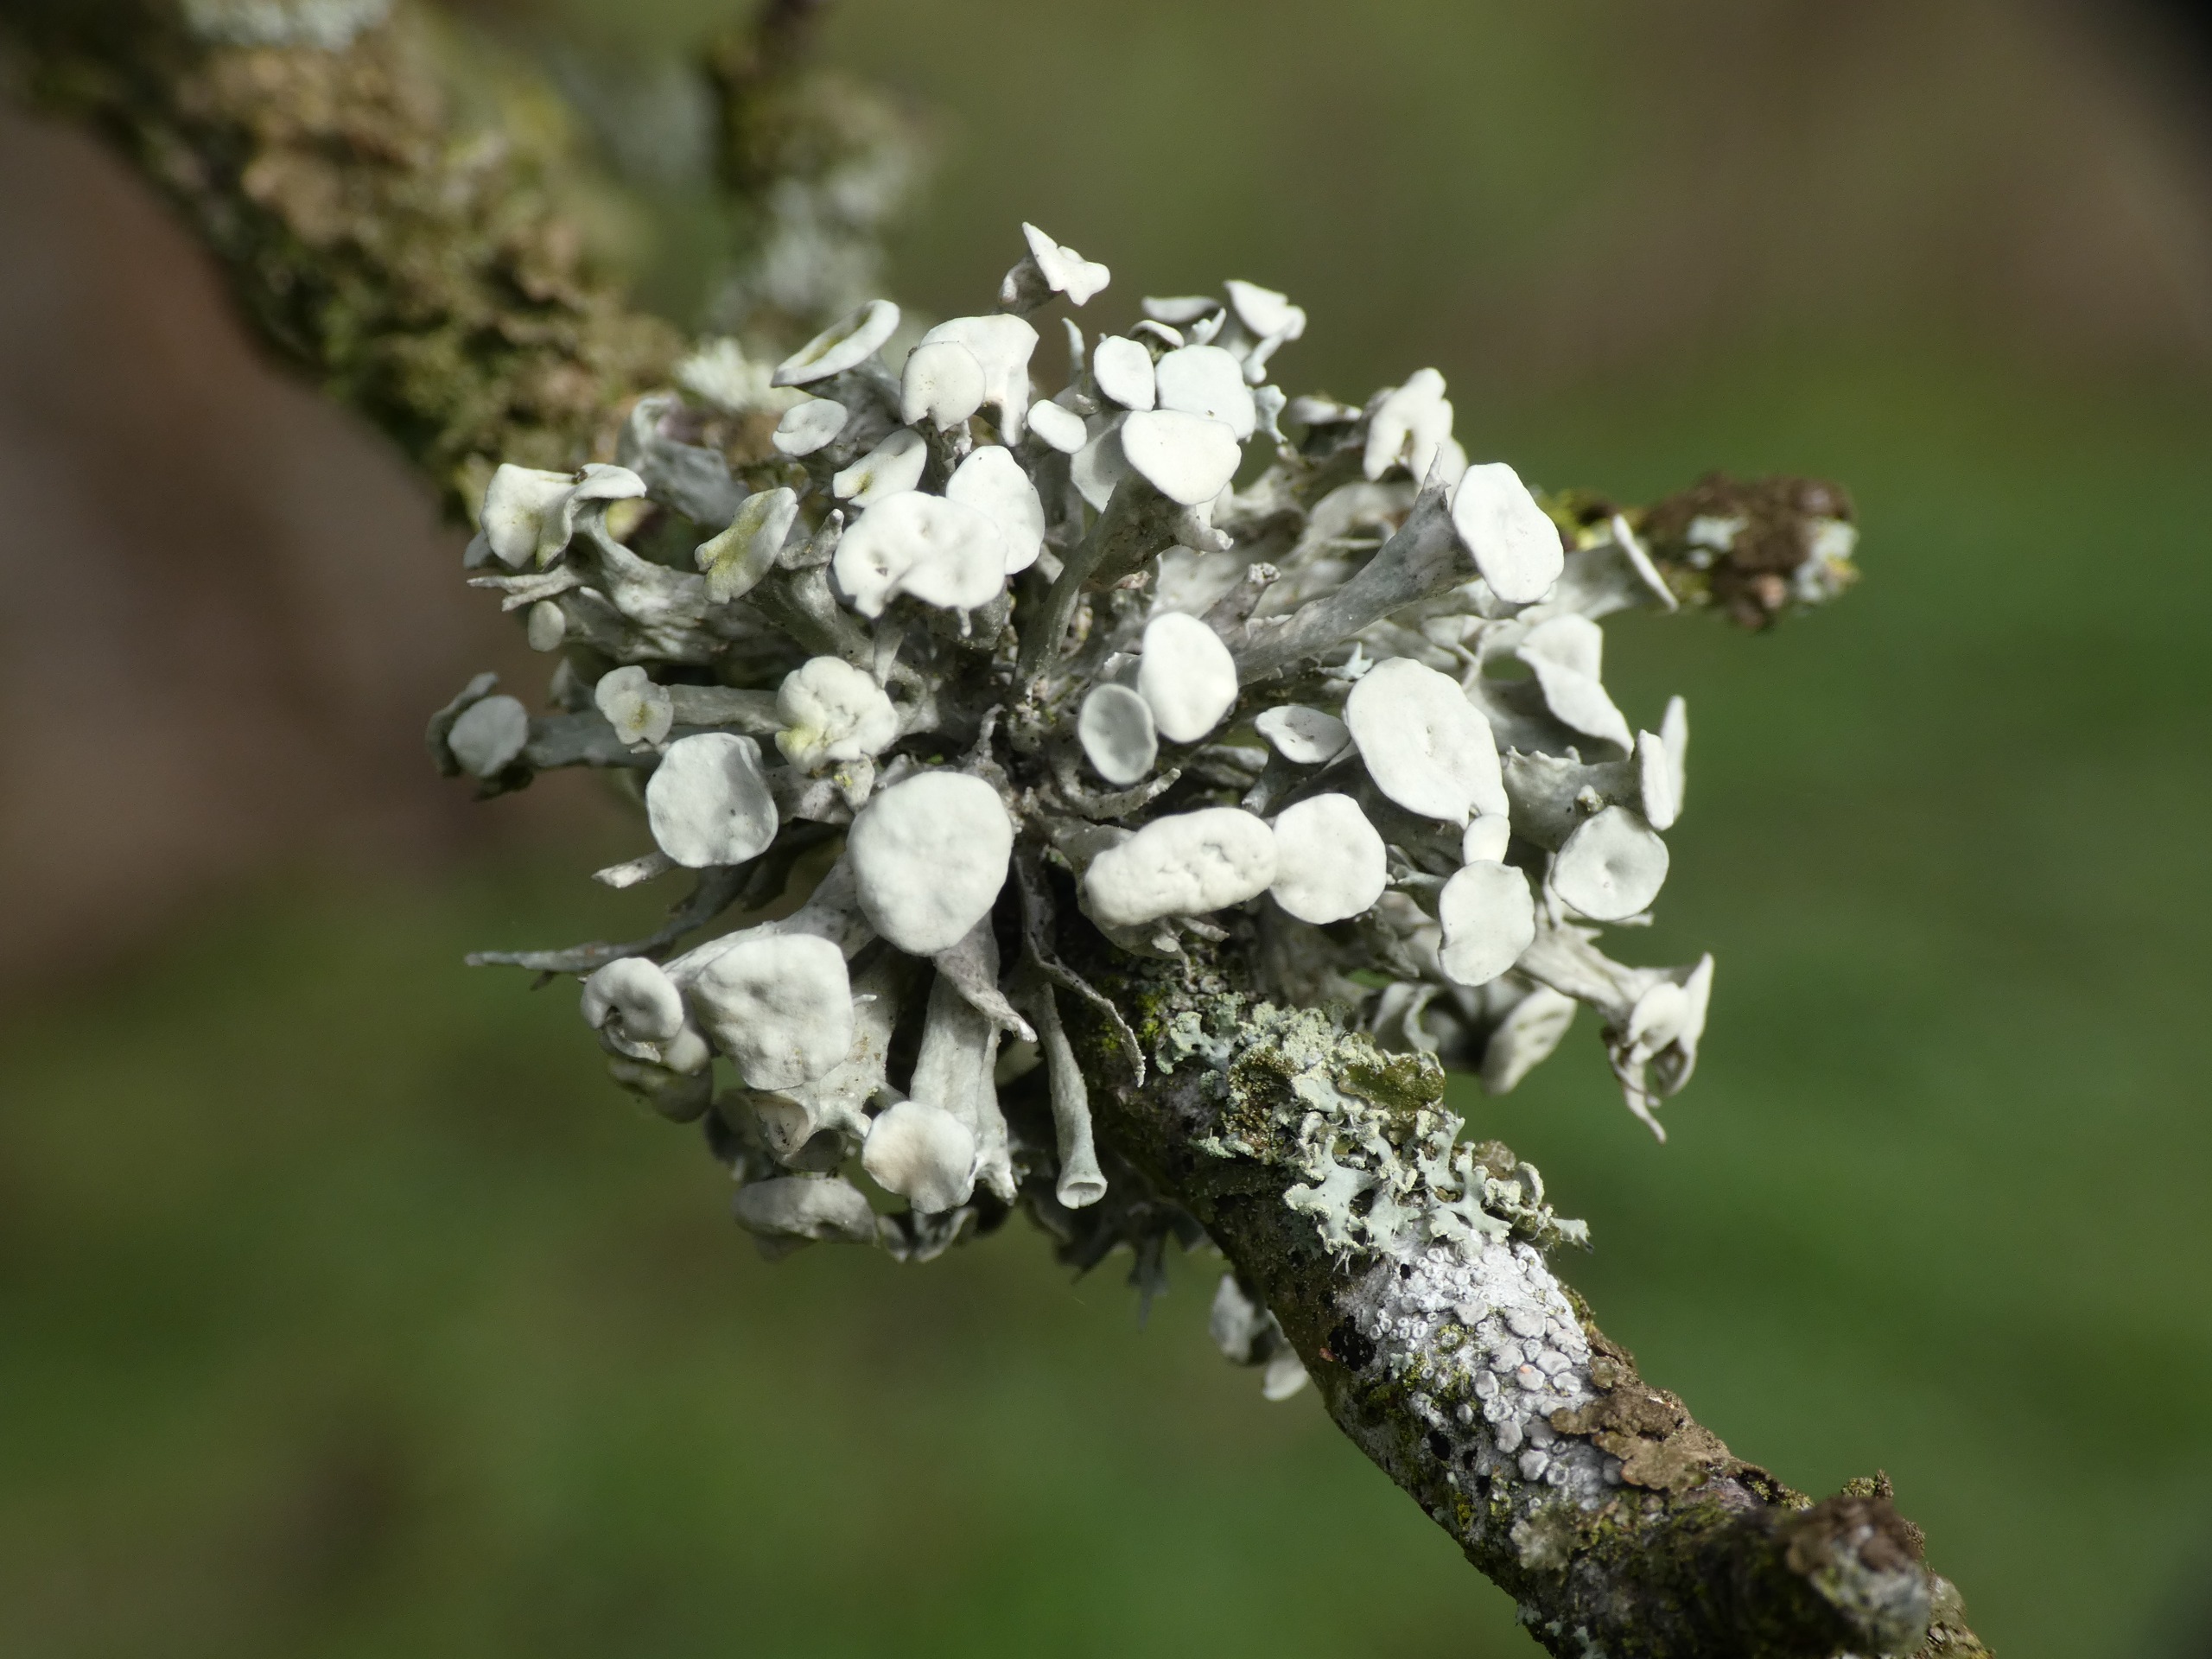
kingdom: Fungi
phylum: Ascomycota
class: Lecanoromycetes
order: Lecanorales
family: Ramalinaceae
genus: Ramalina
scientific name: Ramalina fastigiata
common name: Tue-grenlav
